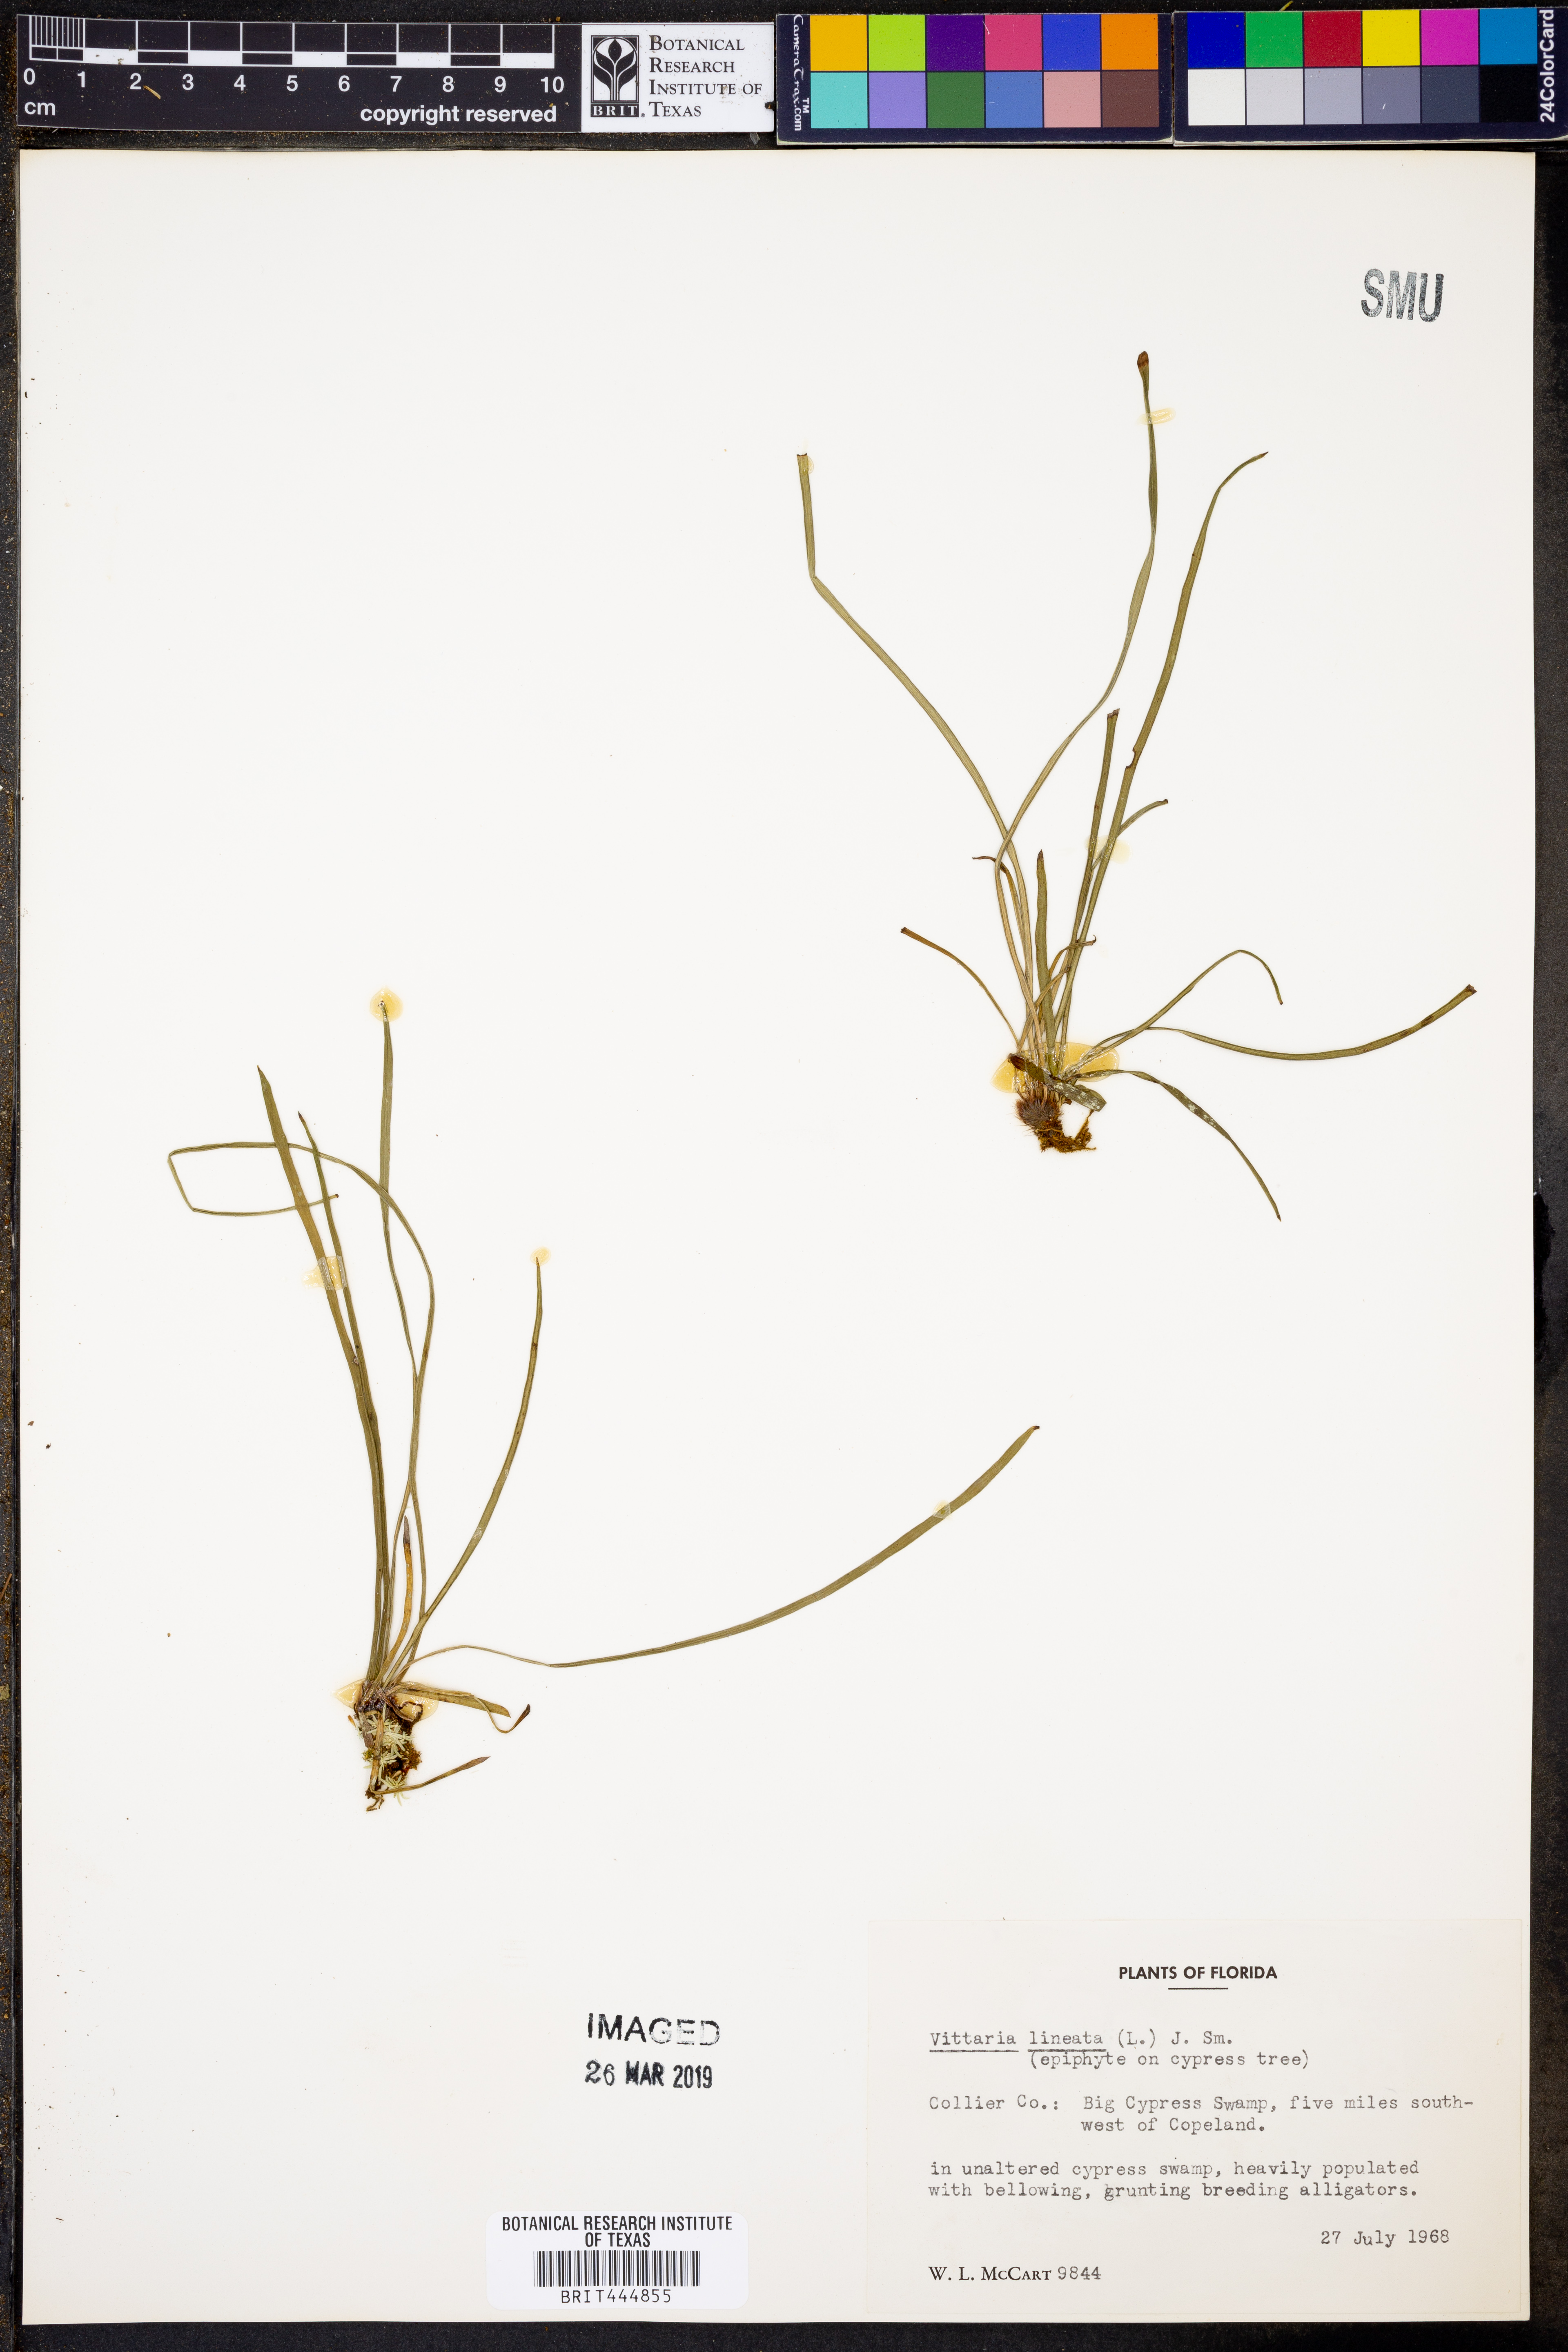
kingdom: Plantae
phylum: Tracheophyta
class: Polypodiopsida
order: Polypodiales
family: Pteridaceae
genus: Vittaria
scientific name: Vittaria lineata
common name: Shoestring fern
